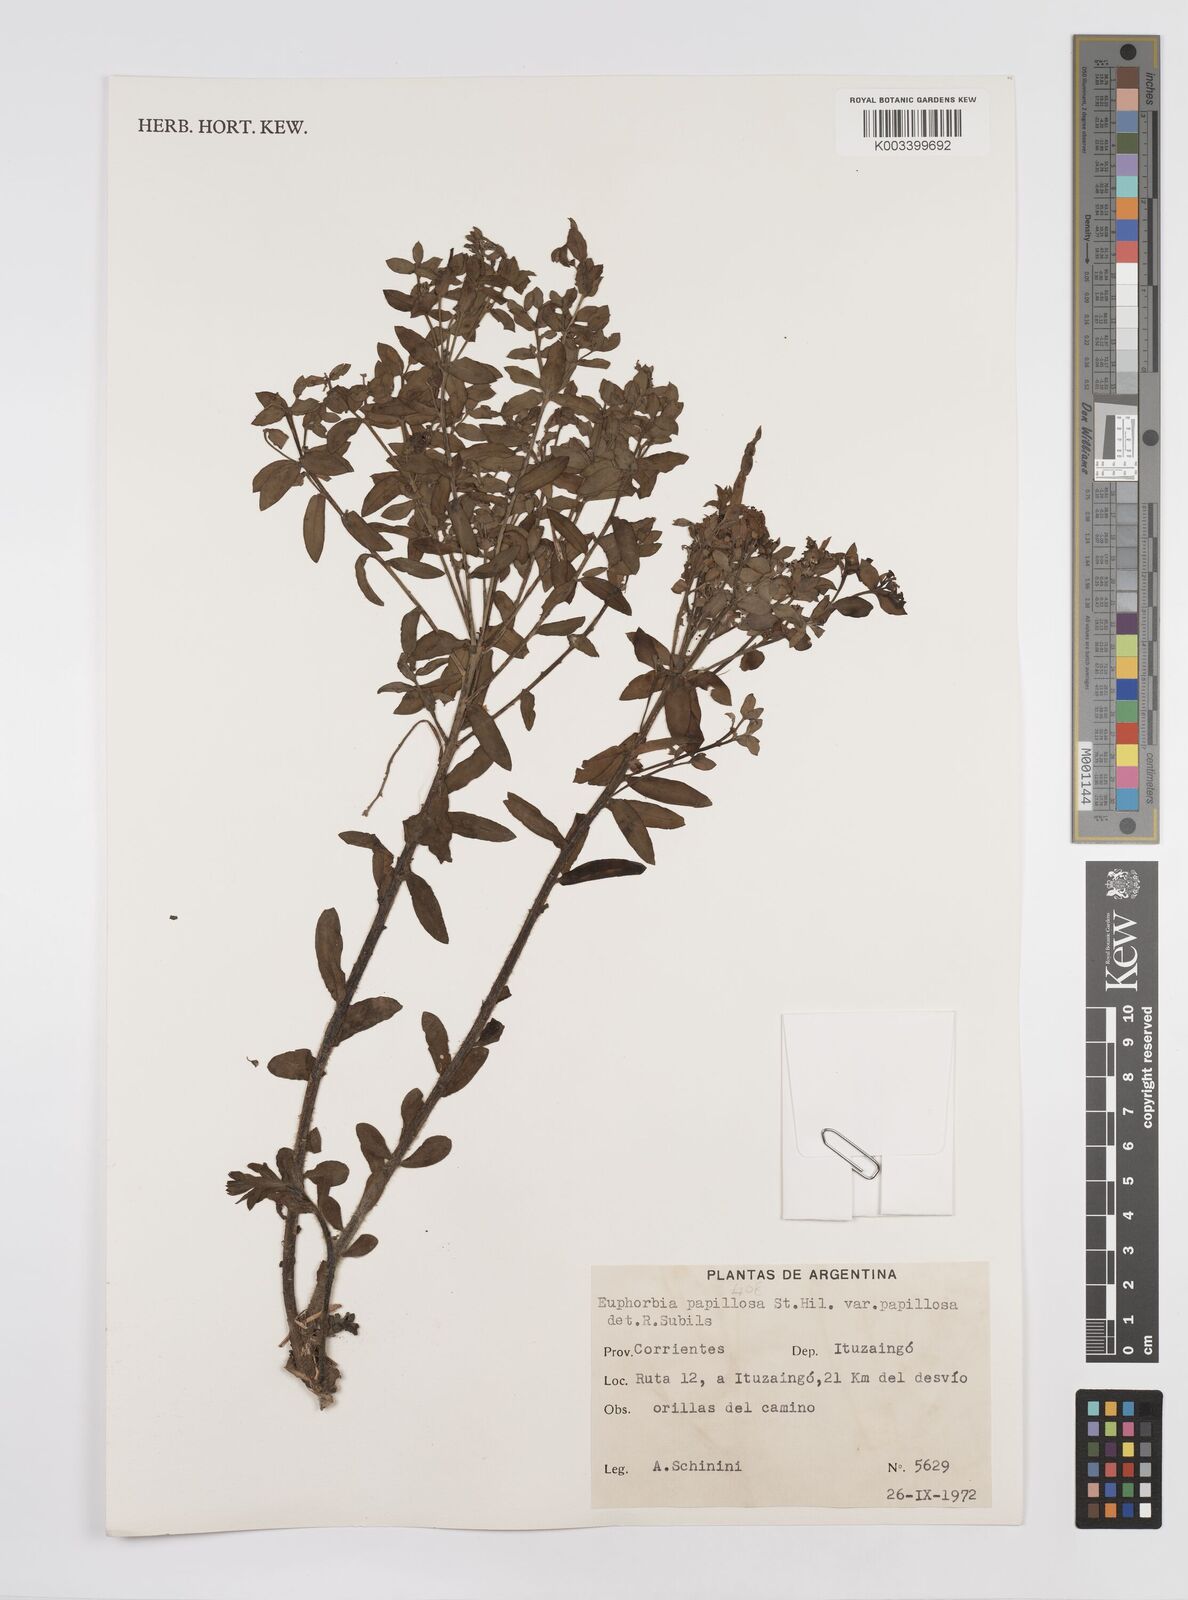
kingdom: Plantae
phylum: Tracheophyta
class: Magnoliopsida
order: Malpighiales
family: Euphorbiaceae
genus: Euphorbia
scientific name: Euphorbia
